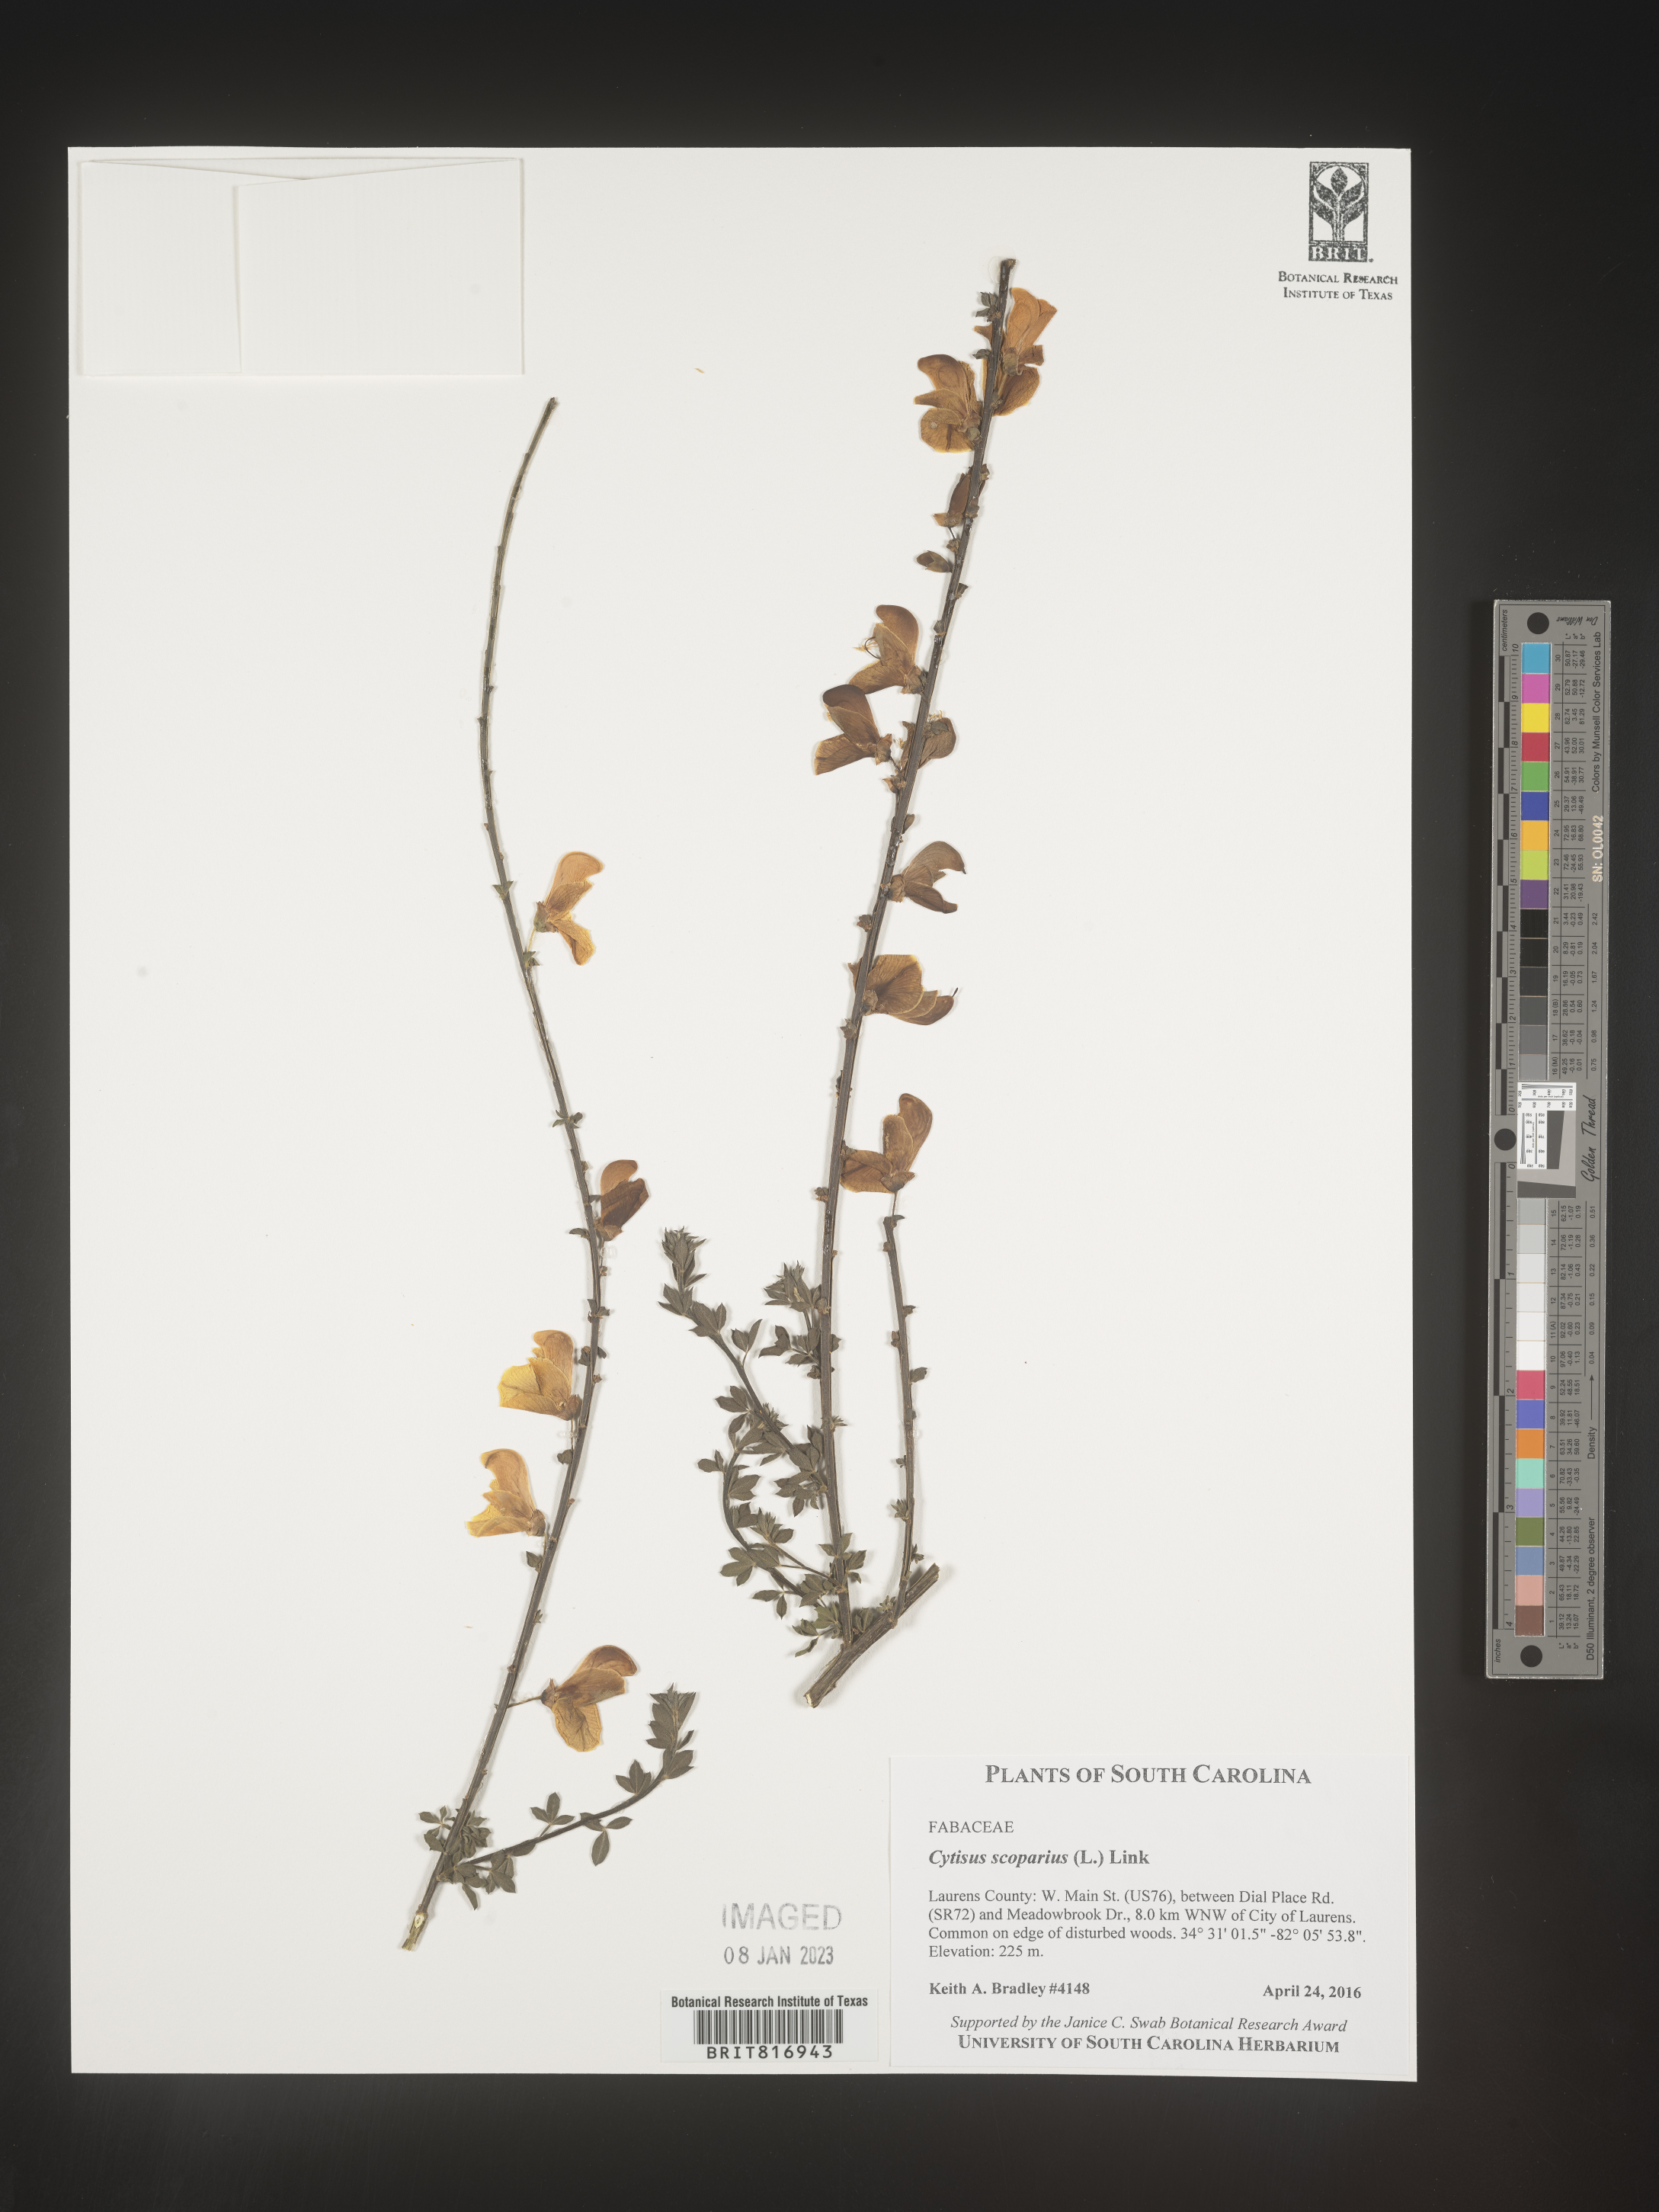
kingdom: Plantae
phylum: Tracheophyta
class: Magnoliopsida
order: Fabales
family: Fabaceae
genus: Cytisus
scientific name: Cytisus
